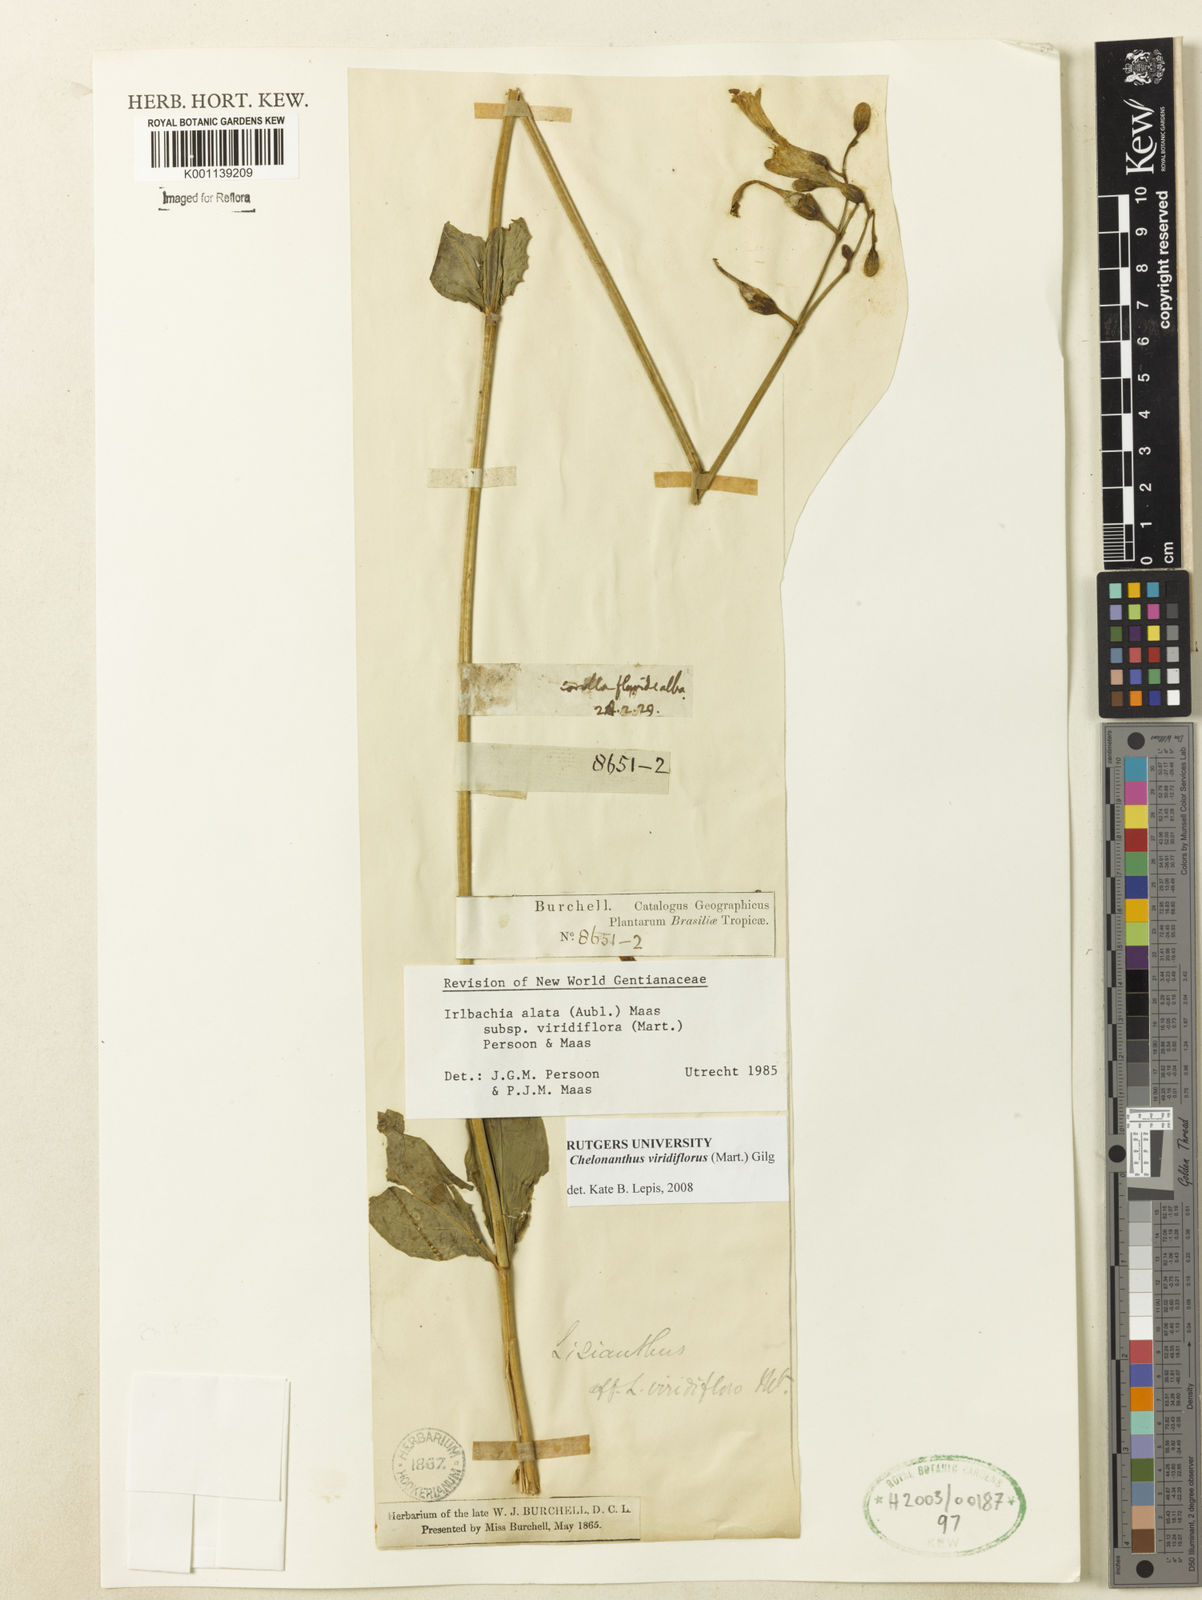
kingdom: Plantae
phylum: Tracheophyta
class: Magnoliopsida
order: Gentianales
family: Gentianaceae
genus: Chelonanthus
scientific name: Chelonanthus viridiflorus
